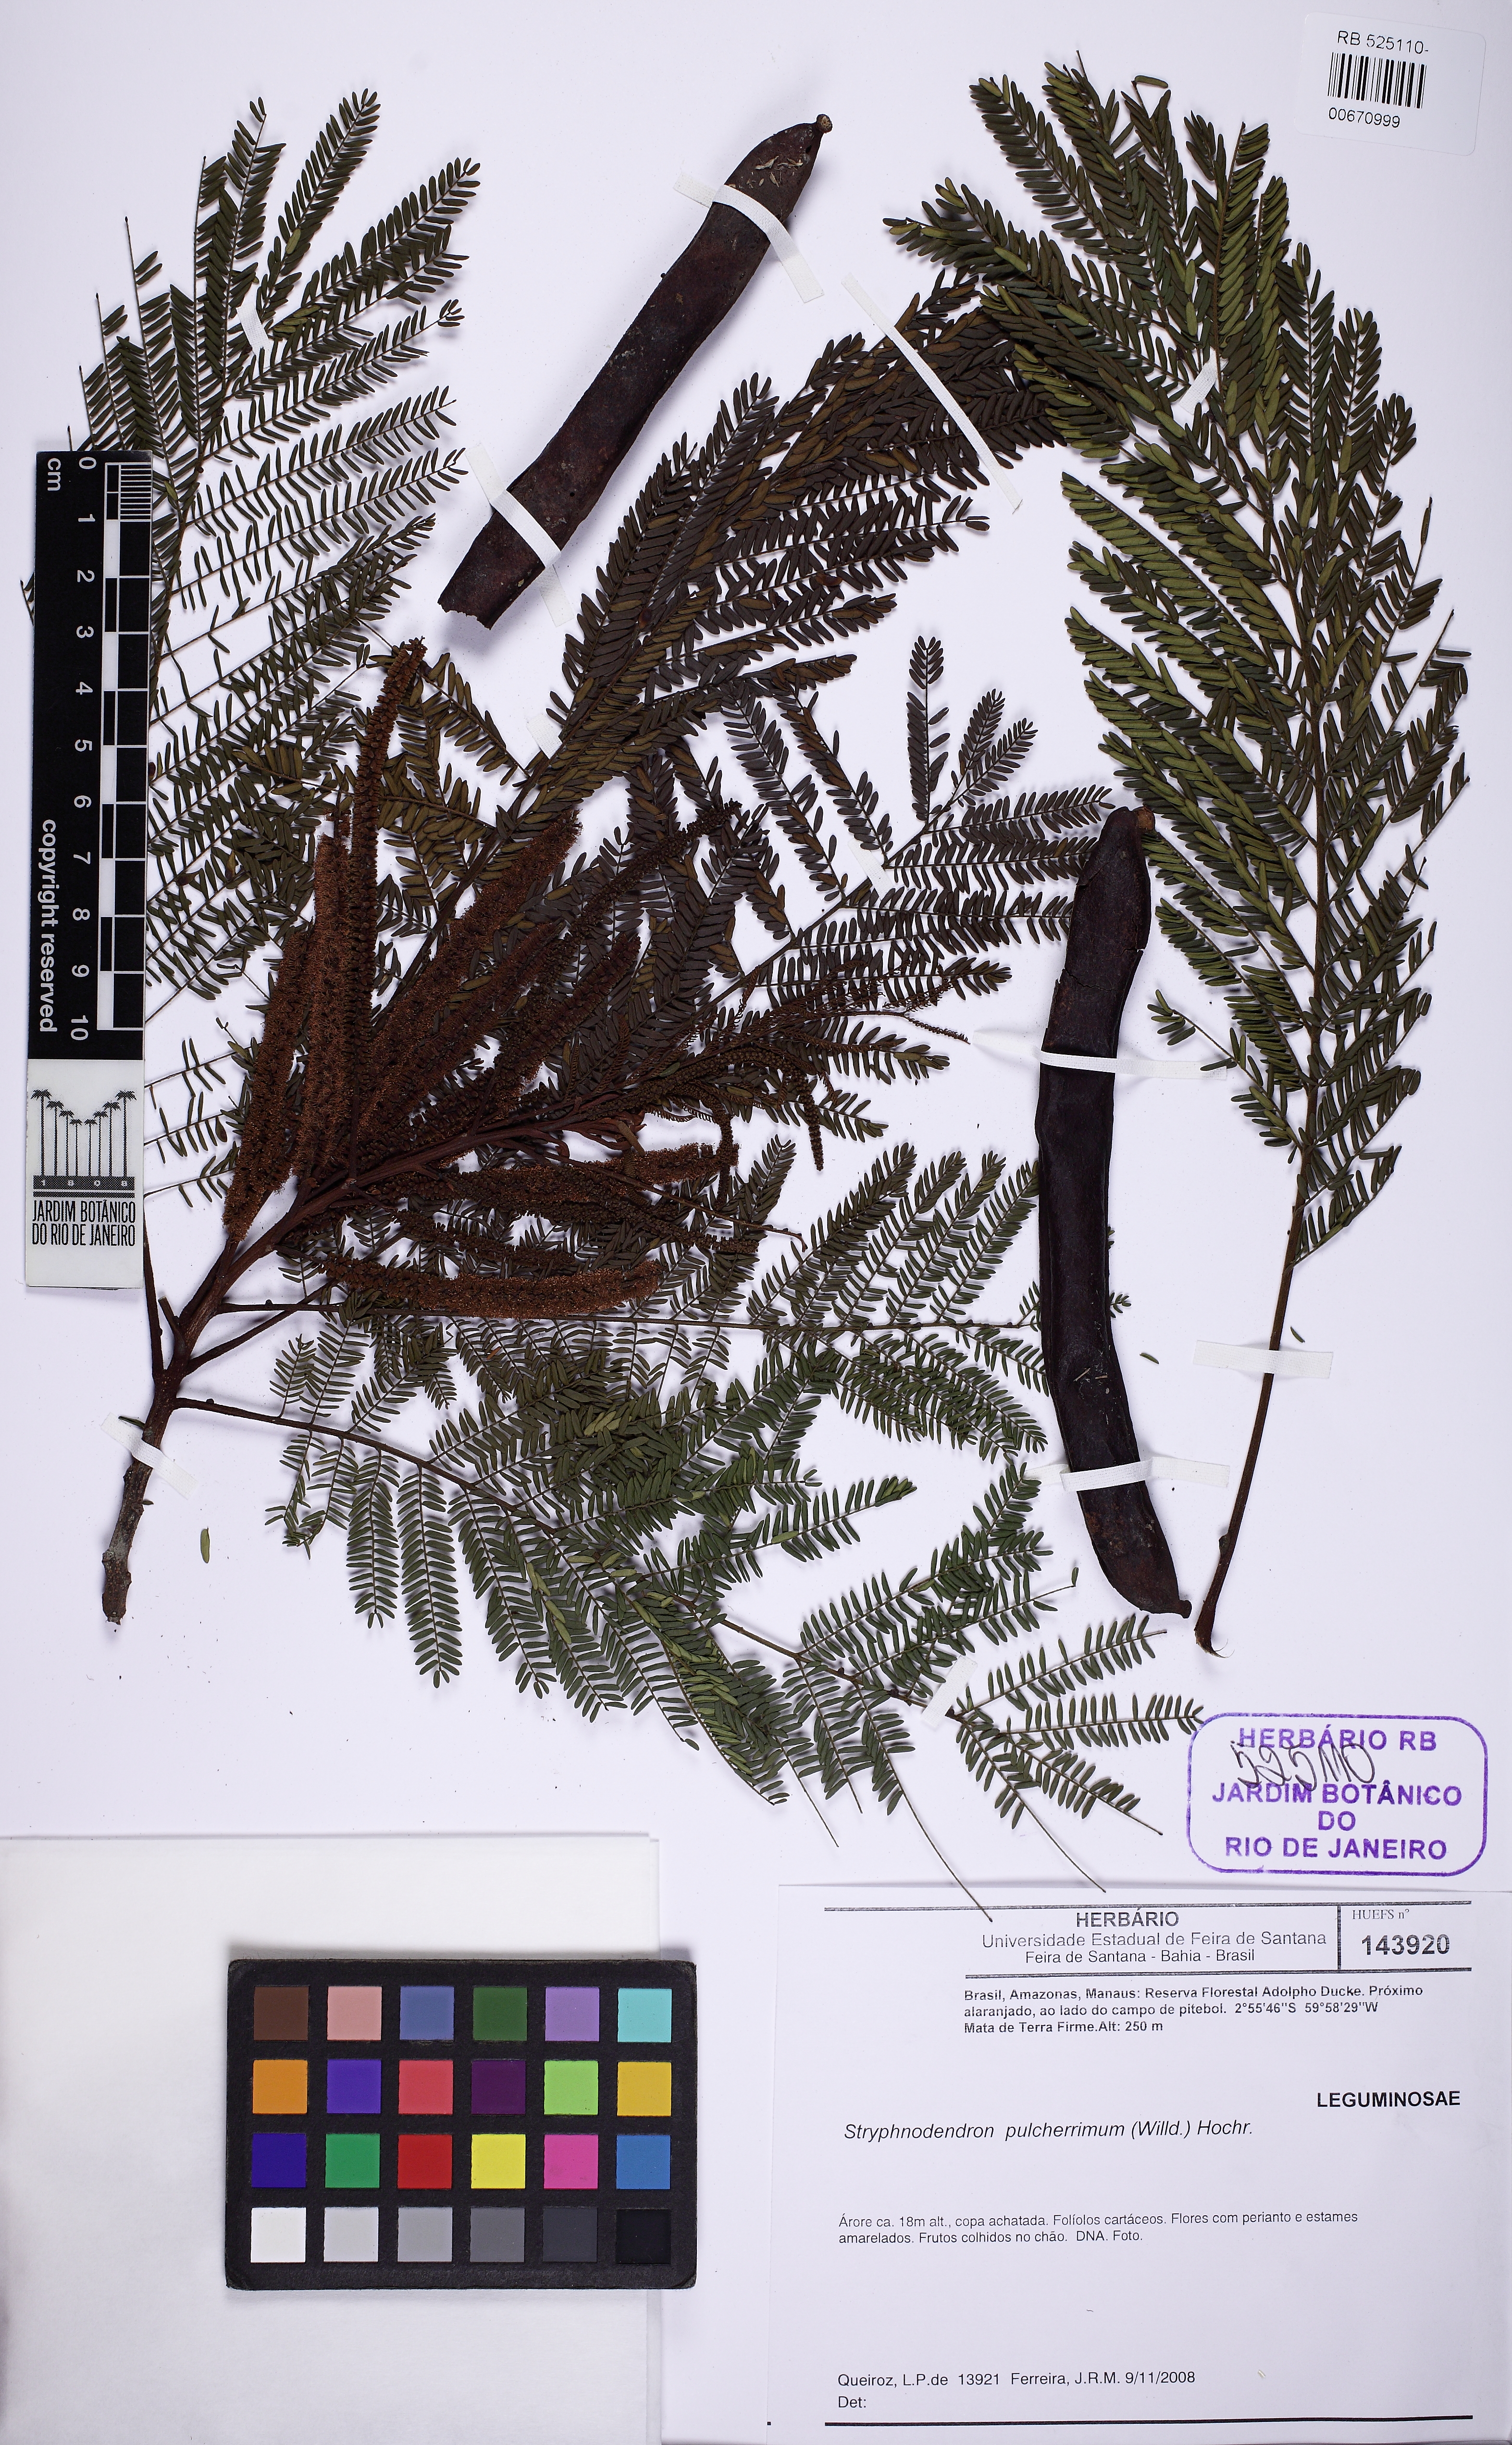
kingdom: Plantae
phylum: Tracheophyta
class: Magnoliopsida
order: Fabales
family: Fabaceae
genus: Stryphnodendron
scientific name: Stryphnodendron pulcherrimum
